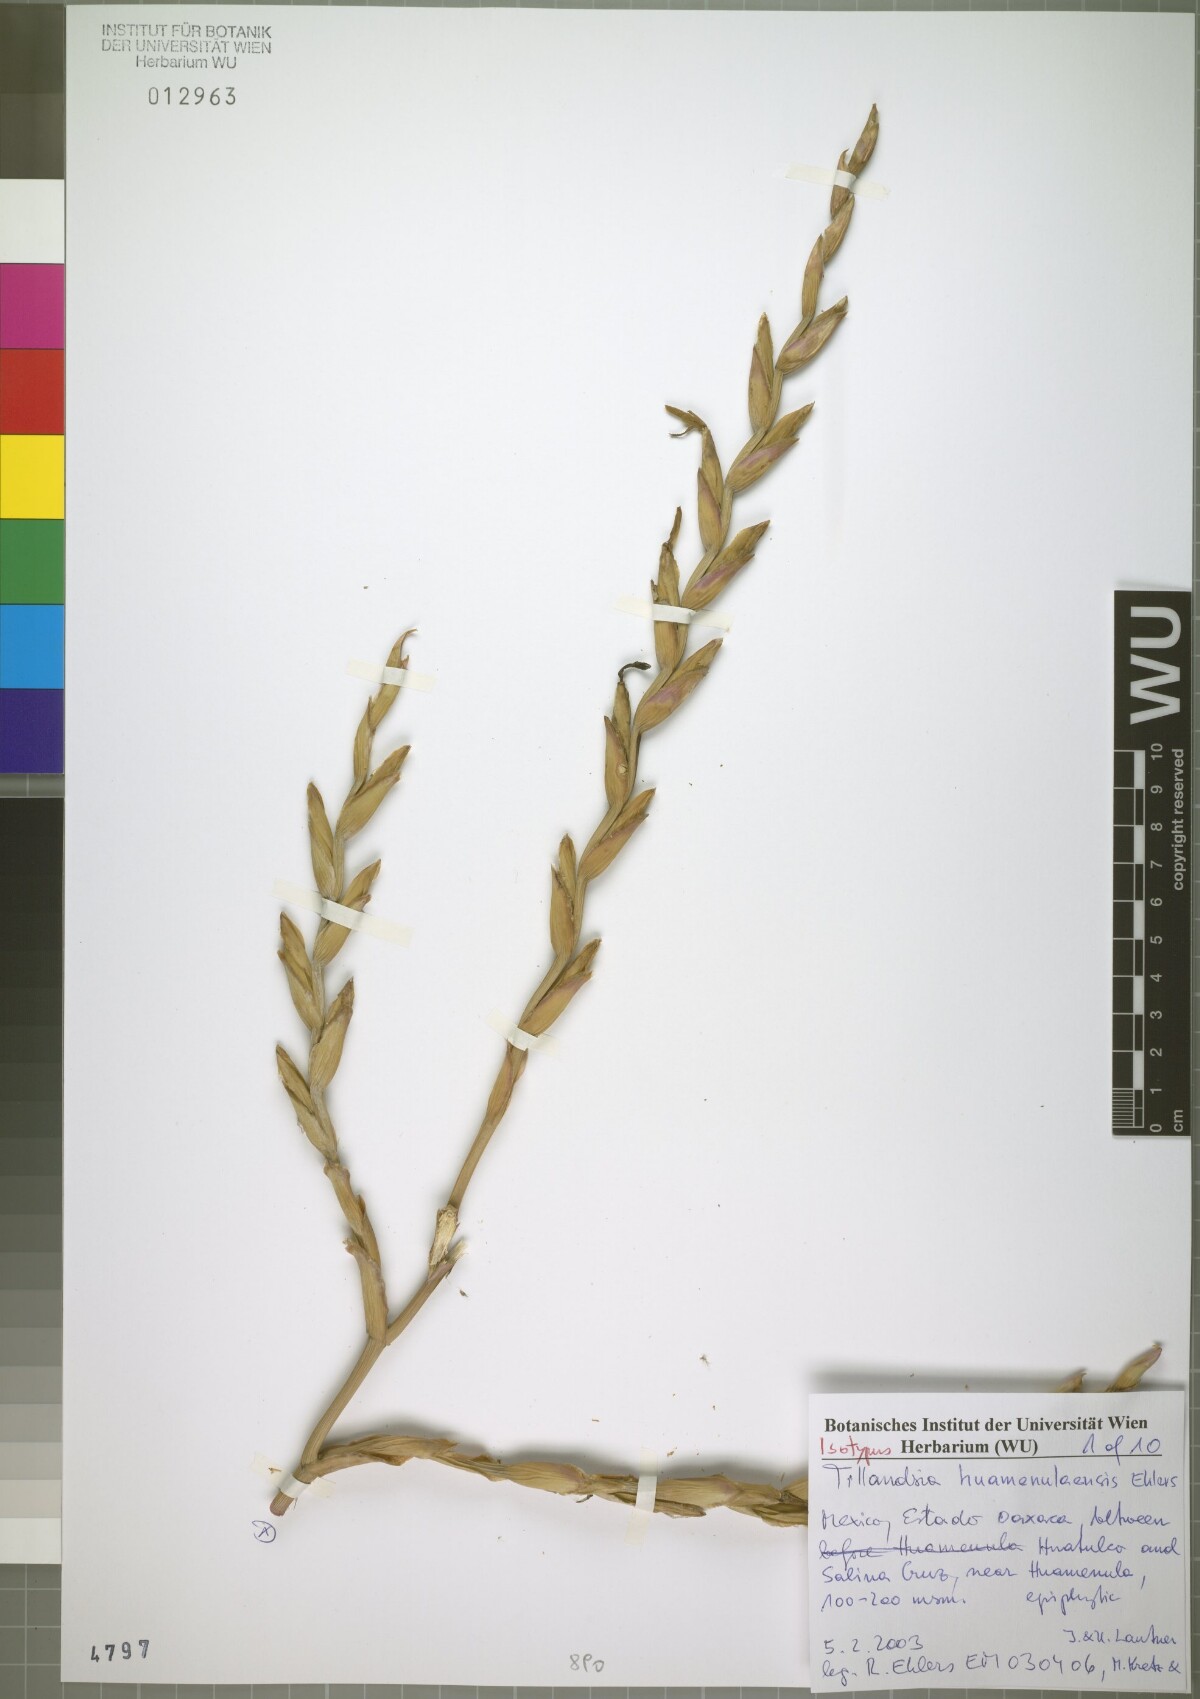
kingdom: Plantae
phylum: Tracheophyta
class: Liliopsida
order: Poales
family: Bromeliaceae
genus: Tillandsia
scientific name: Tillandsia huamenulaensis
